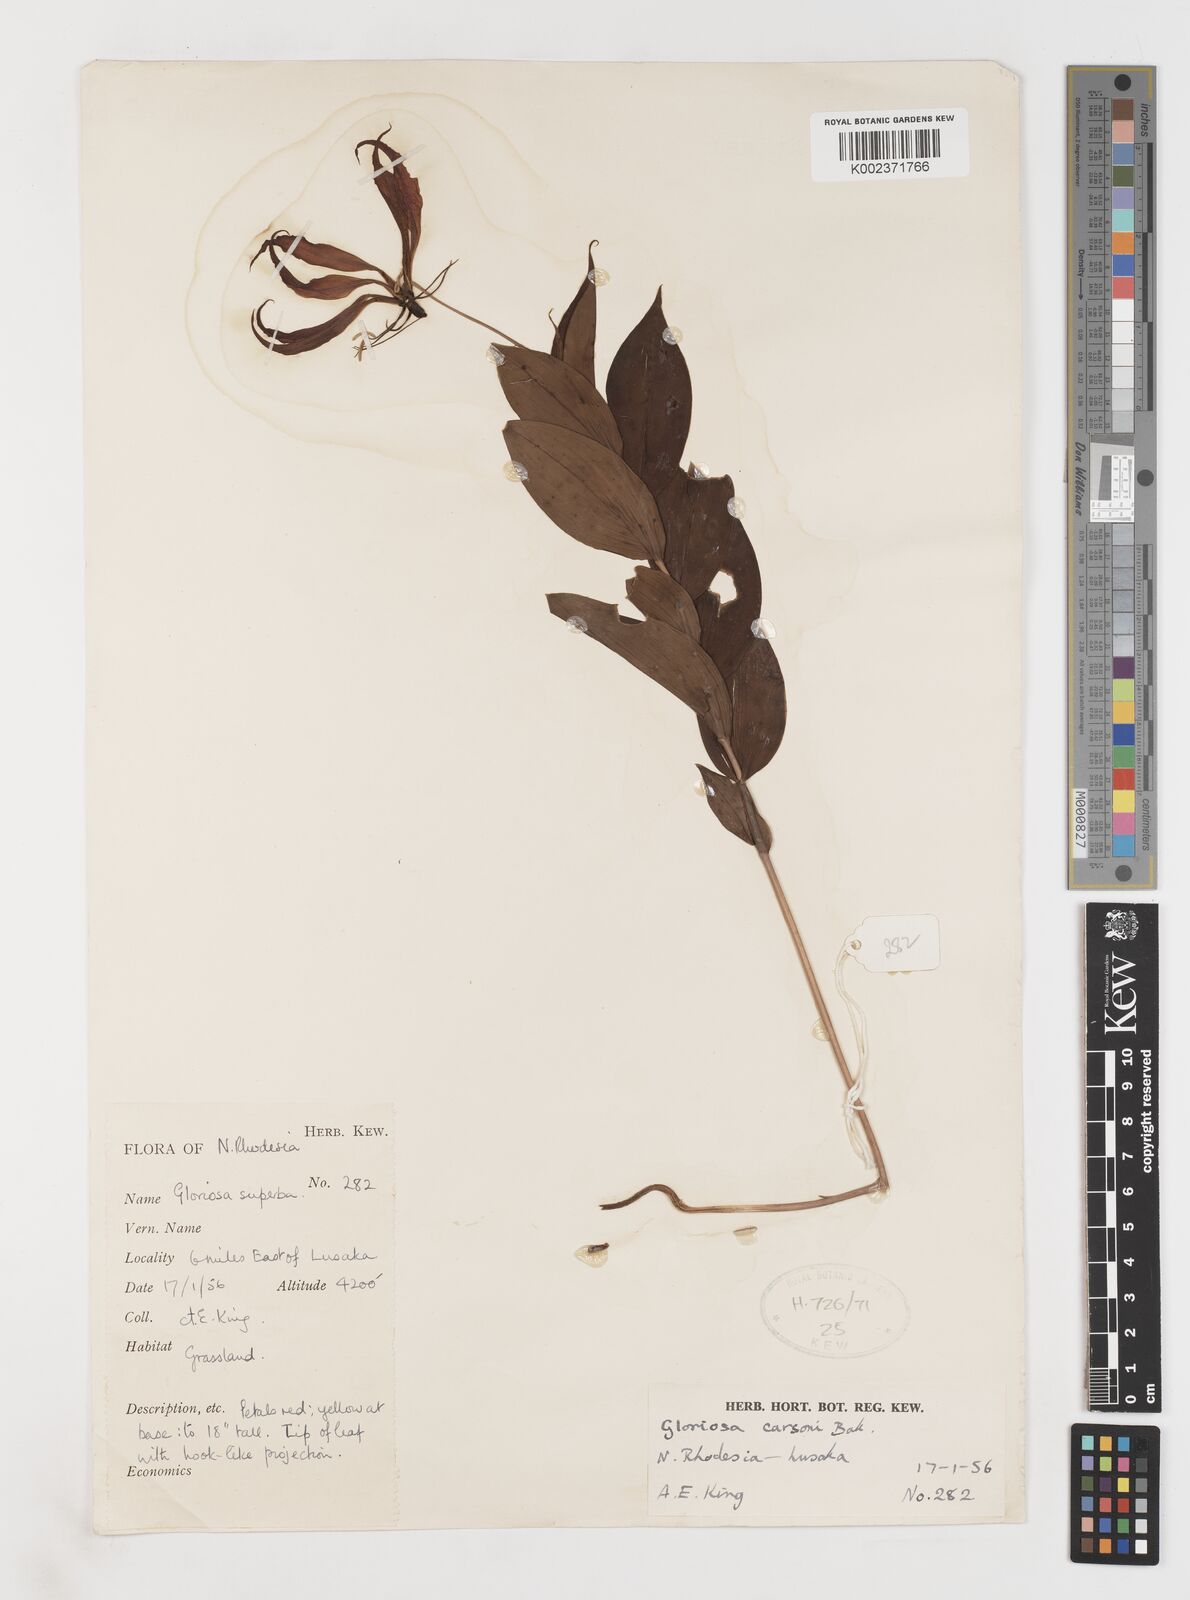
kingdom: Plantae
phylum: Tracheophyta
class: Liliopsida
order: Liliales
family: Colchicaceae
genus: Gloriosa
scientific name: Gloriosa carsonii
